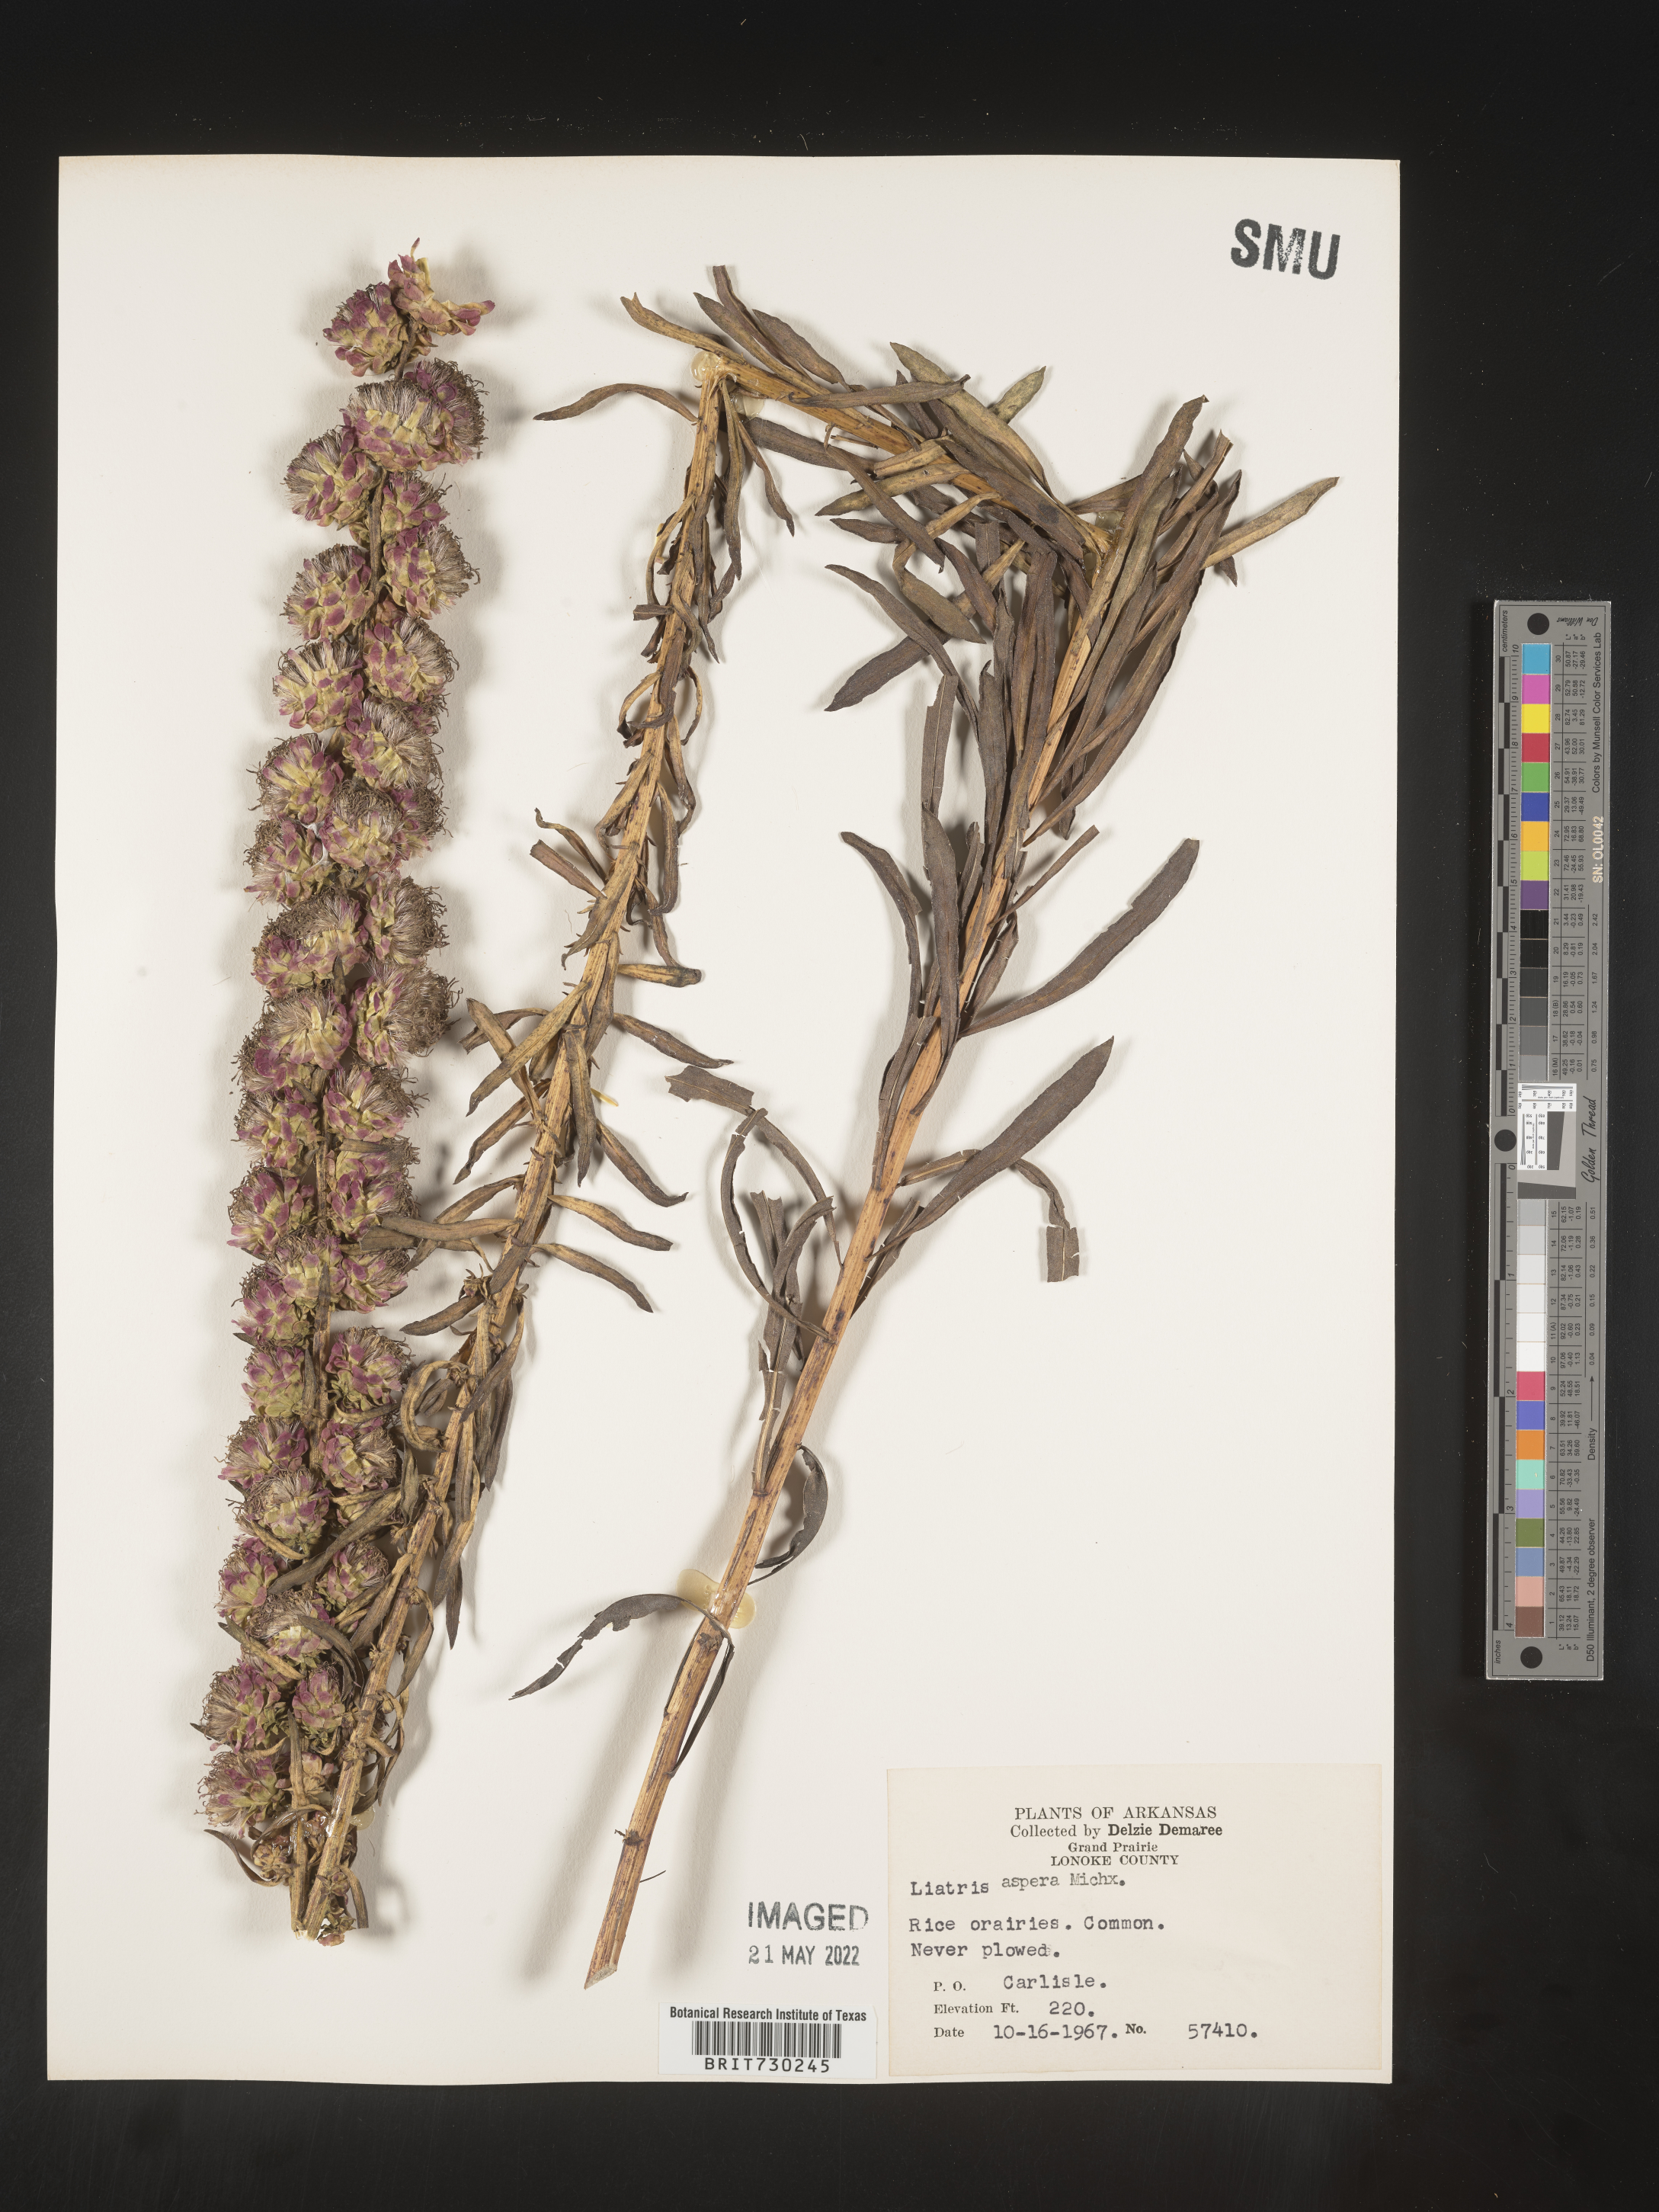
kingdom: Plantae
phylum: Tracheophyta
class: Magnoliopsida
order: Asterales
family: Asteraceae
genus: Liatris
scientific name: Liatris aspera
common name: Lacerate blazing-star
